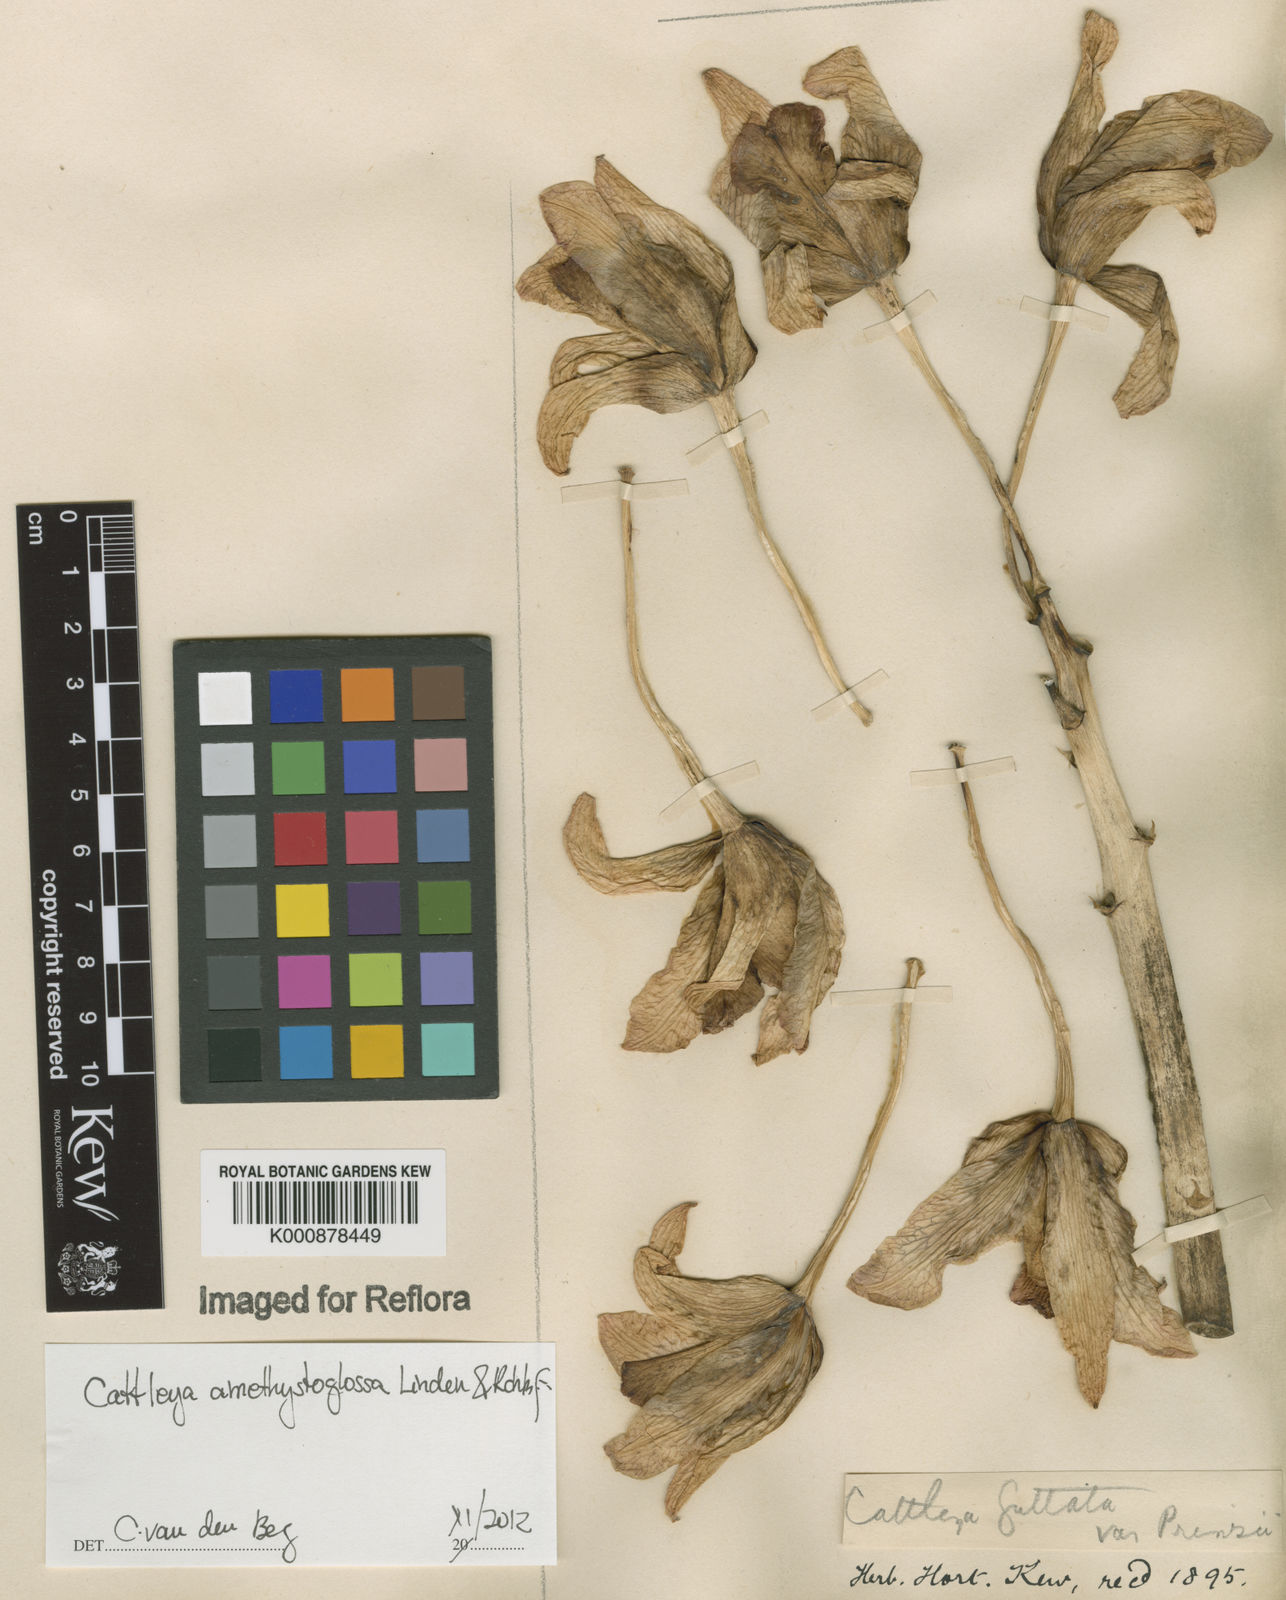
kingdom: Plantae
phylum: Tracheophyta
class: Liliopsida
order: Asparagales
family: Orchidaceae
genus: Cattleya
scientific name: Cattleya
